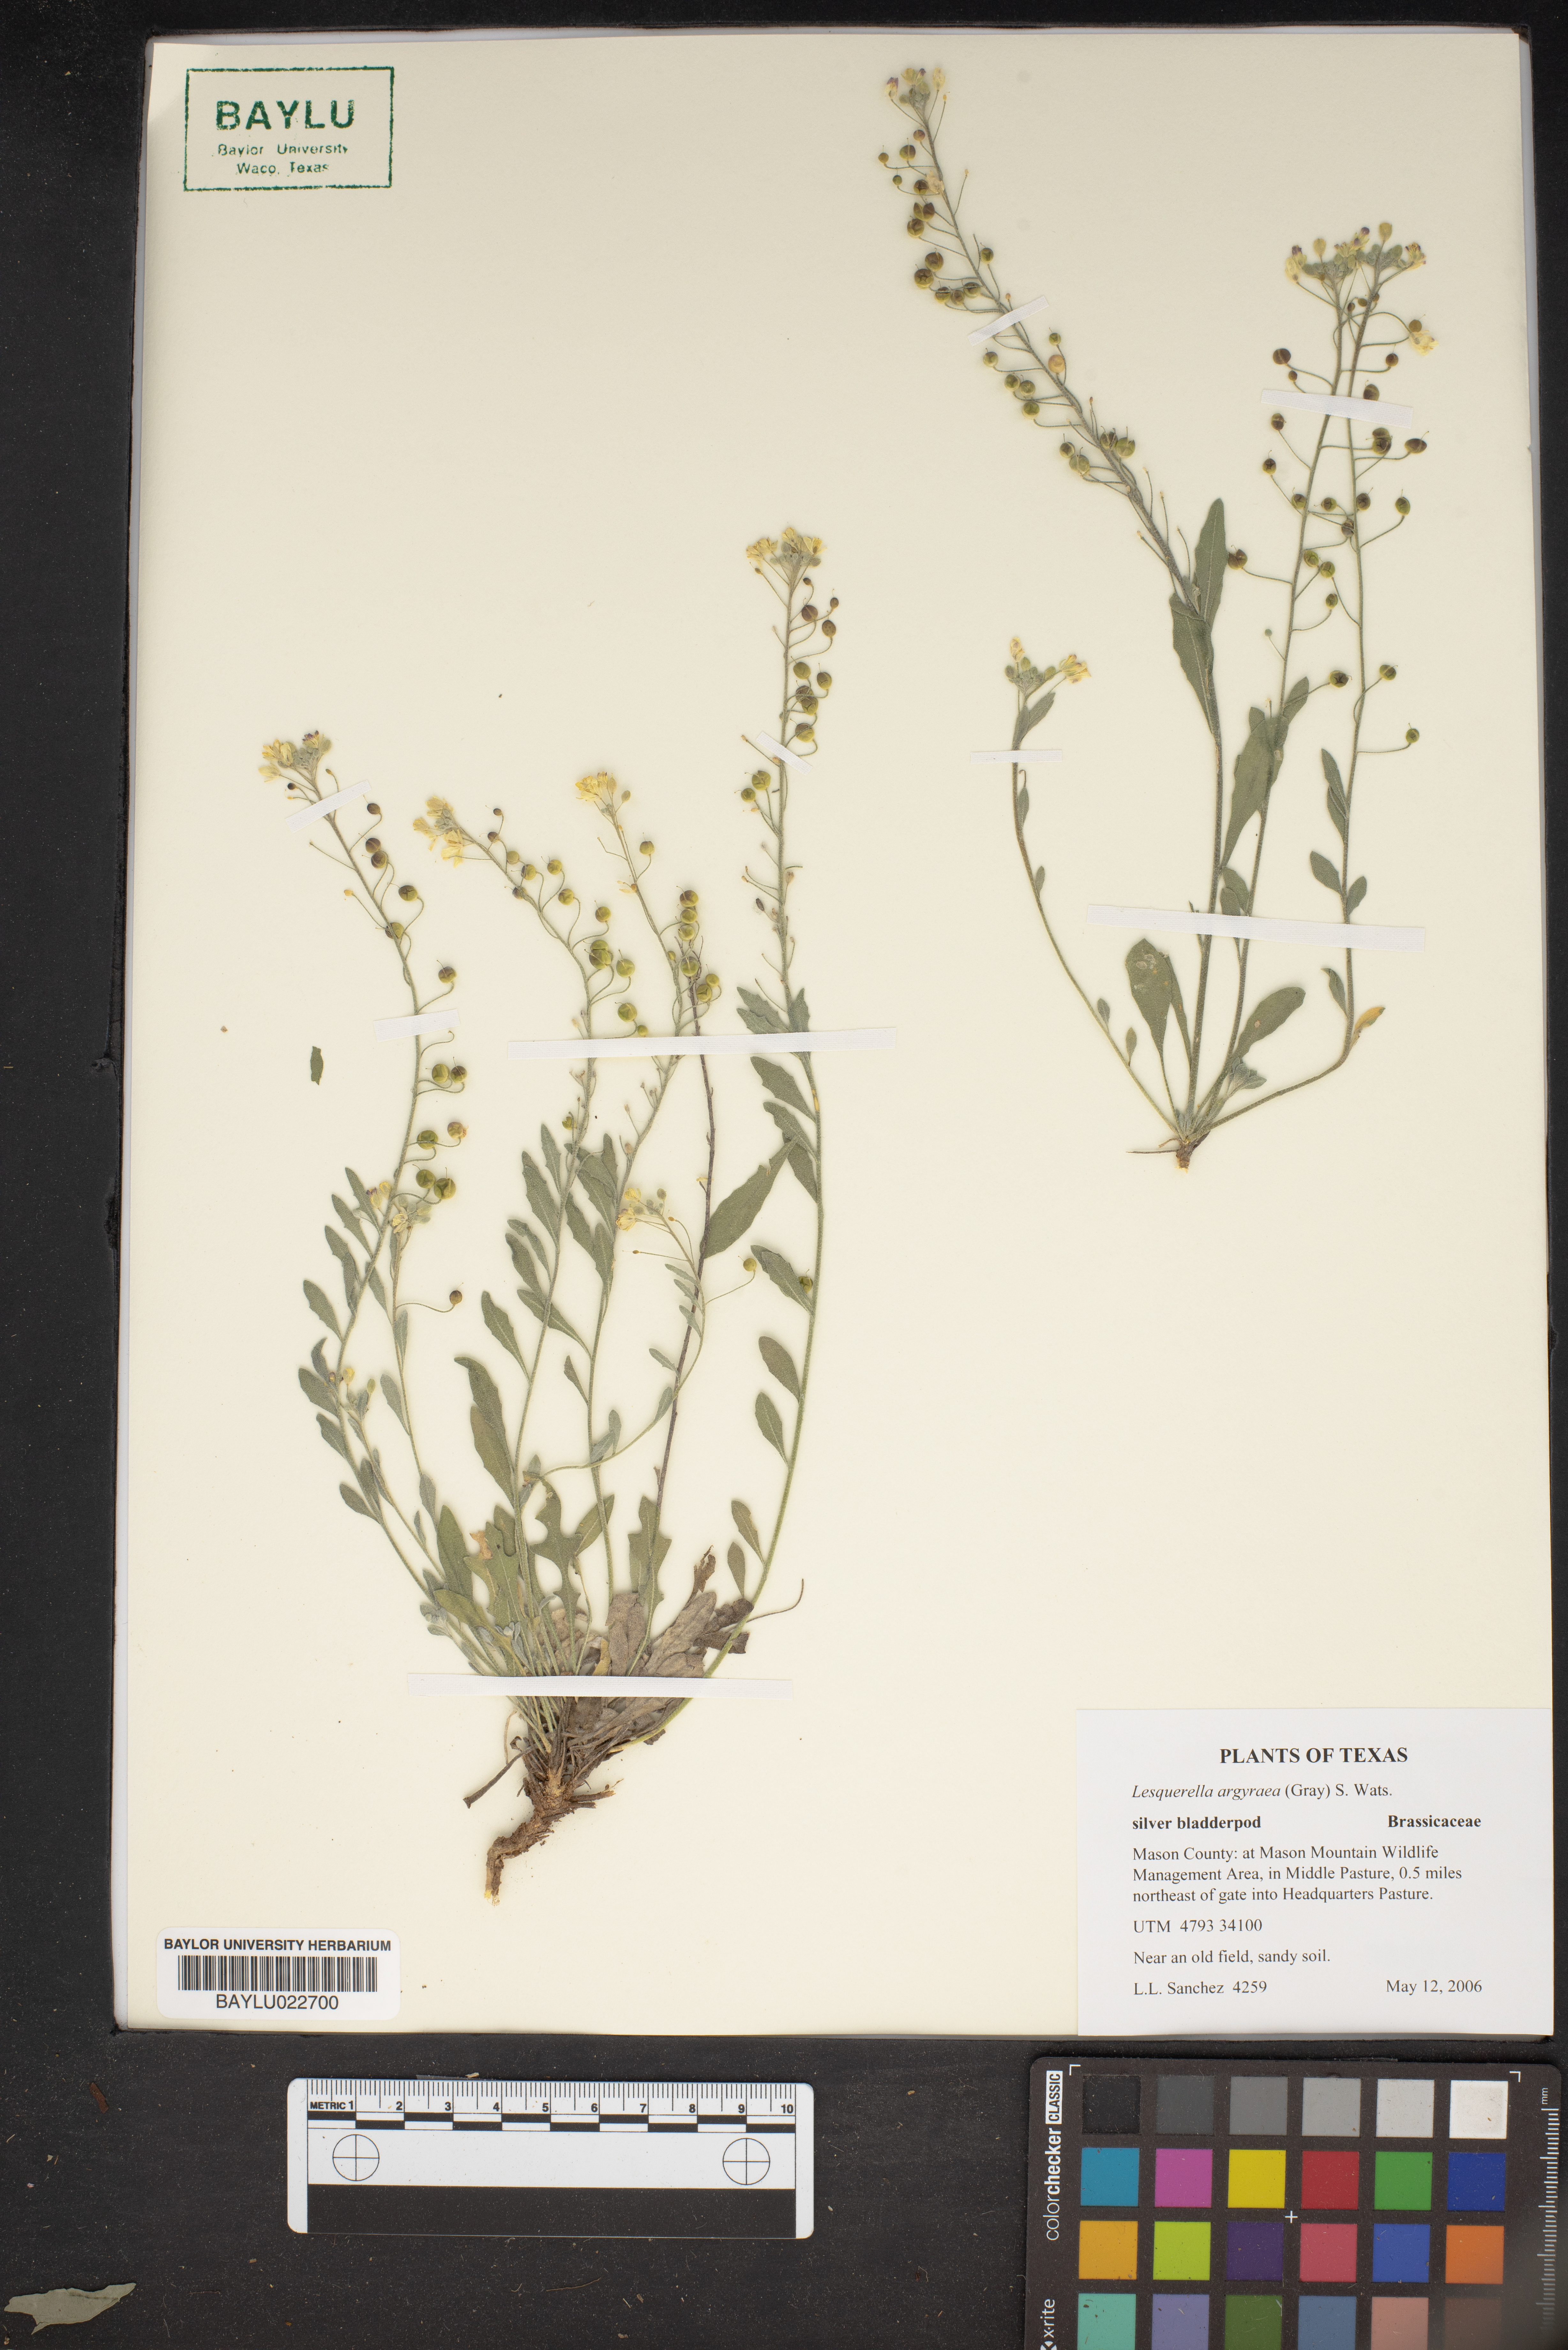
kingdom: Plantae
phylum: Tracheophyta
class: Magnoliopsida
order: Brassicales
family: Brassicaceae
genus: Physaria
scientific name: Physaria argyraea
